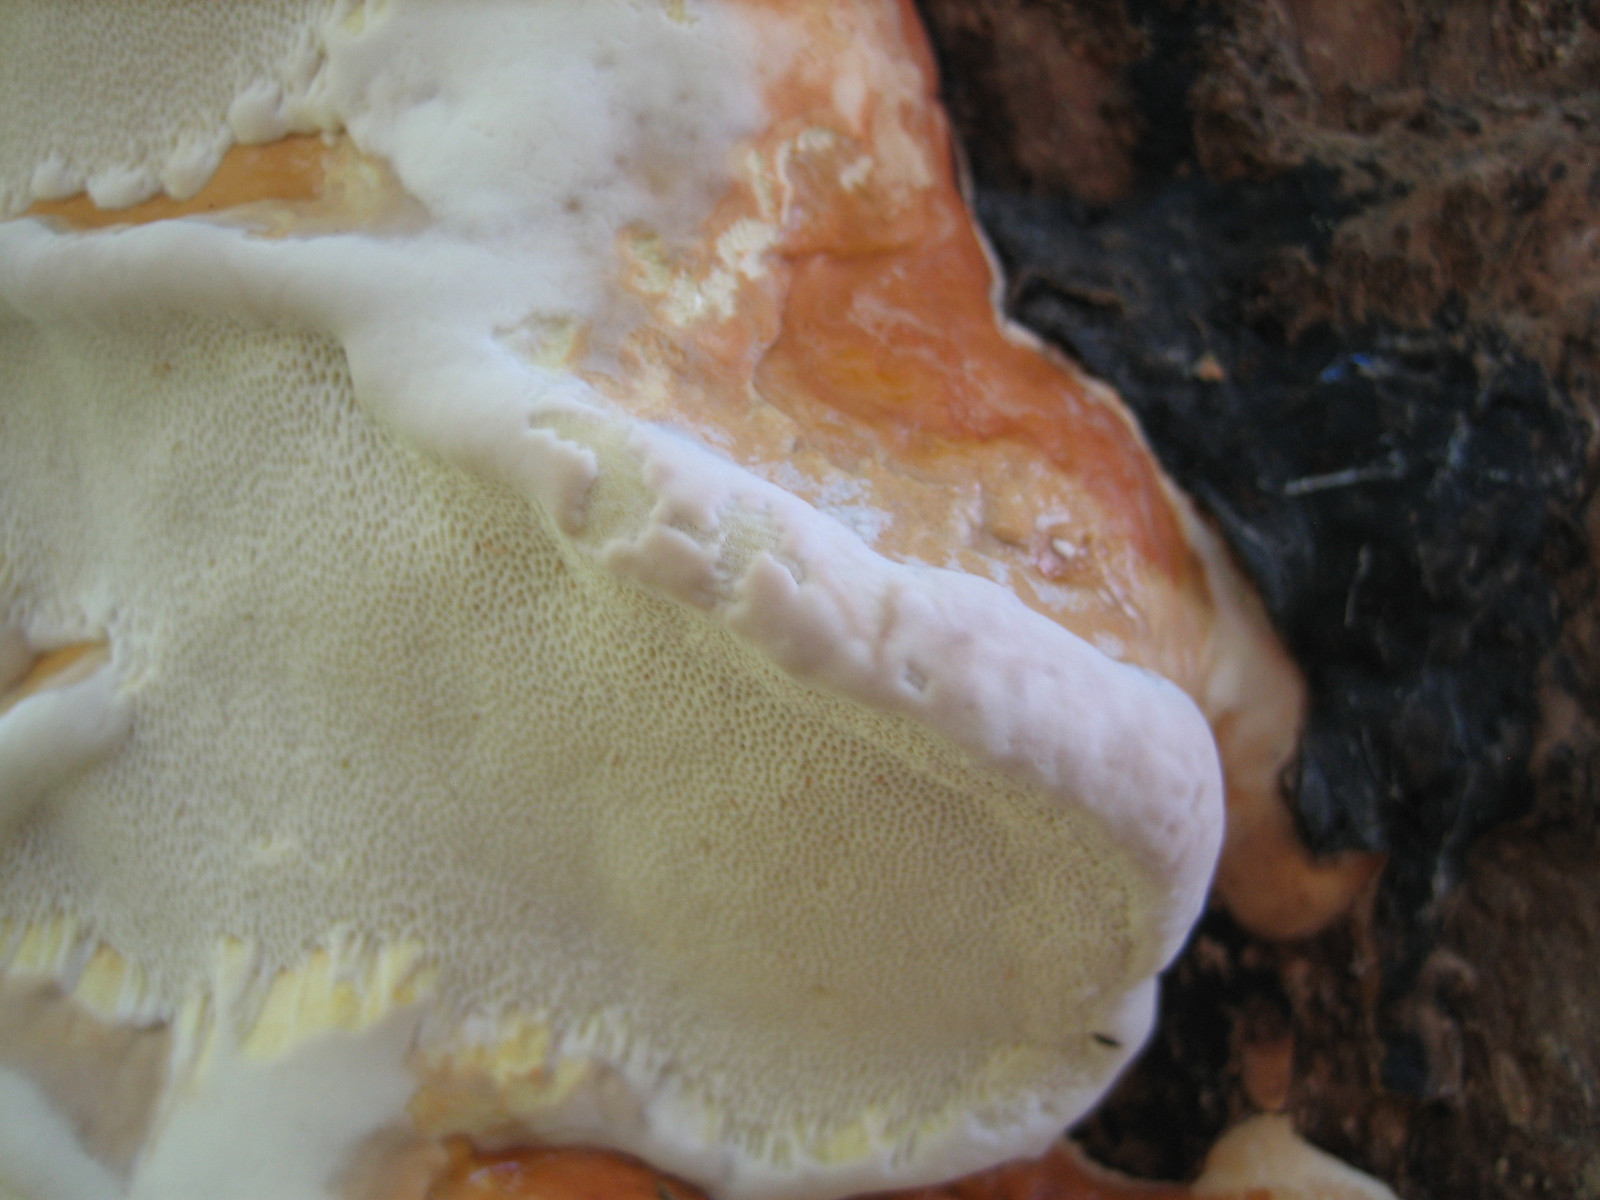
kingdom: Fungi
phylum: Basidiomycota
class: Agaricomycetes
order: Polyporales
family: Fomitopsidaceae
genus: Fomitopsis
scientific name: Fomitopsis pinicola
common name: randbæltet hovporesvamp
